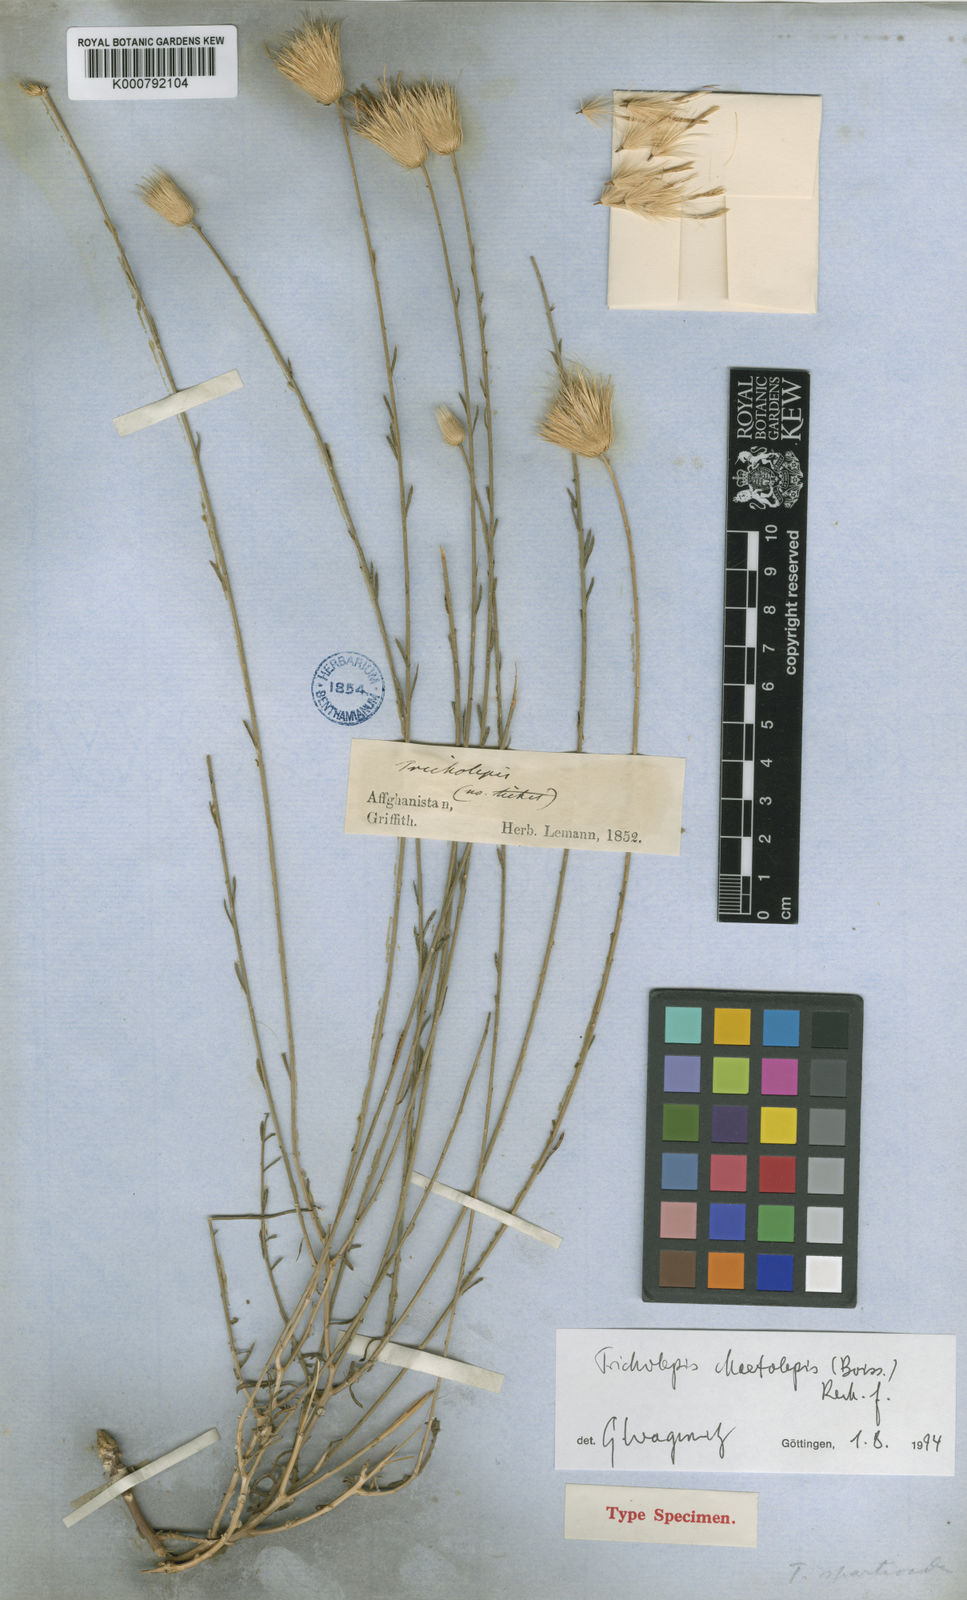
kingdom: Plantae
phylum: Tracheophyta
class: Magnoliopsida
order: Asterales
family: Asteraceae
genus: Tricholepis
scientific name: Tricholepis
